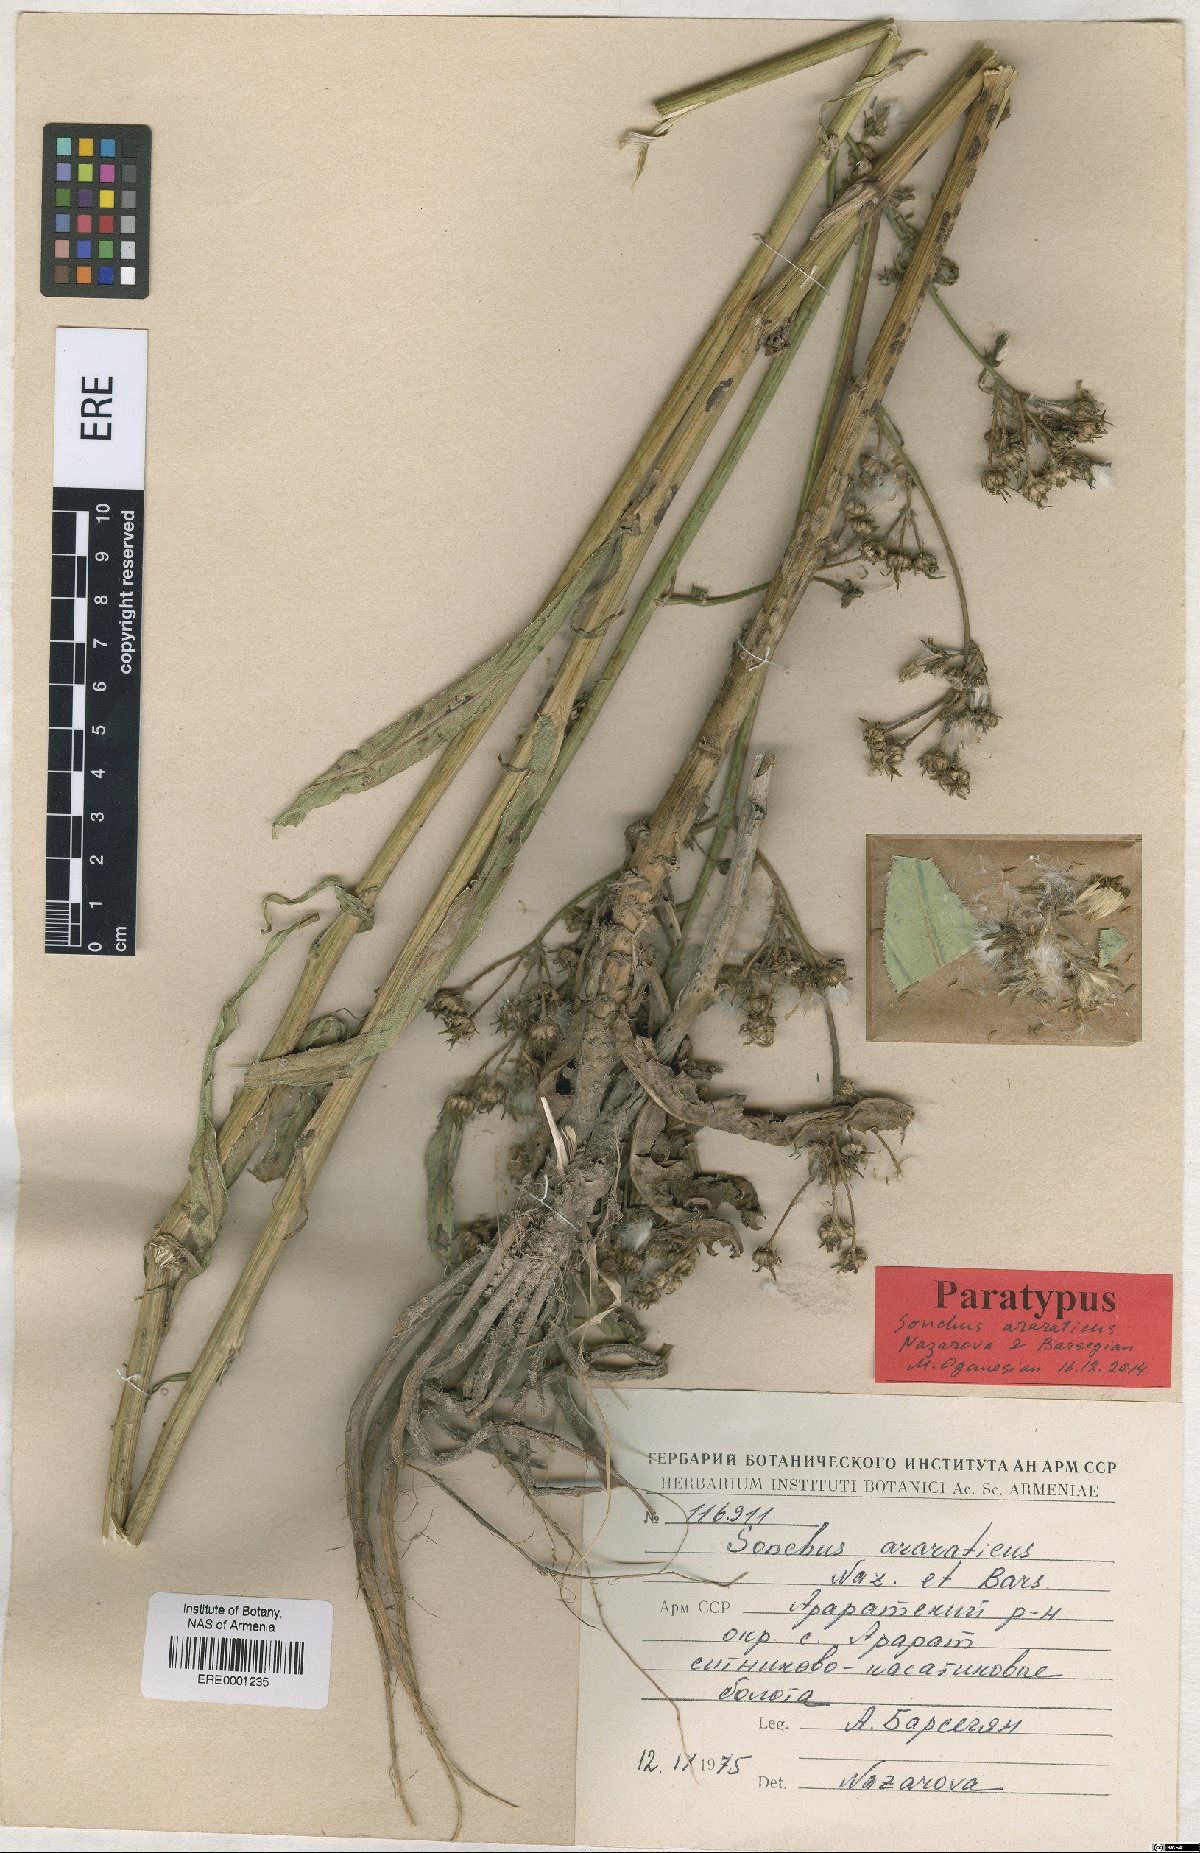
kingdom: Plantae
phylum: Tracheophyta
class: Magnoliopsida
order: Asterales
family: Asteraceae
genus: Sonchus
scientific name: Sonchus araraticus
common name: Araratian sow-thistle
